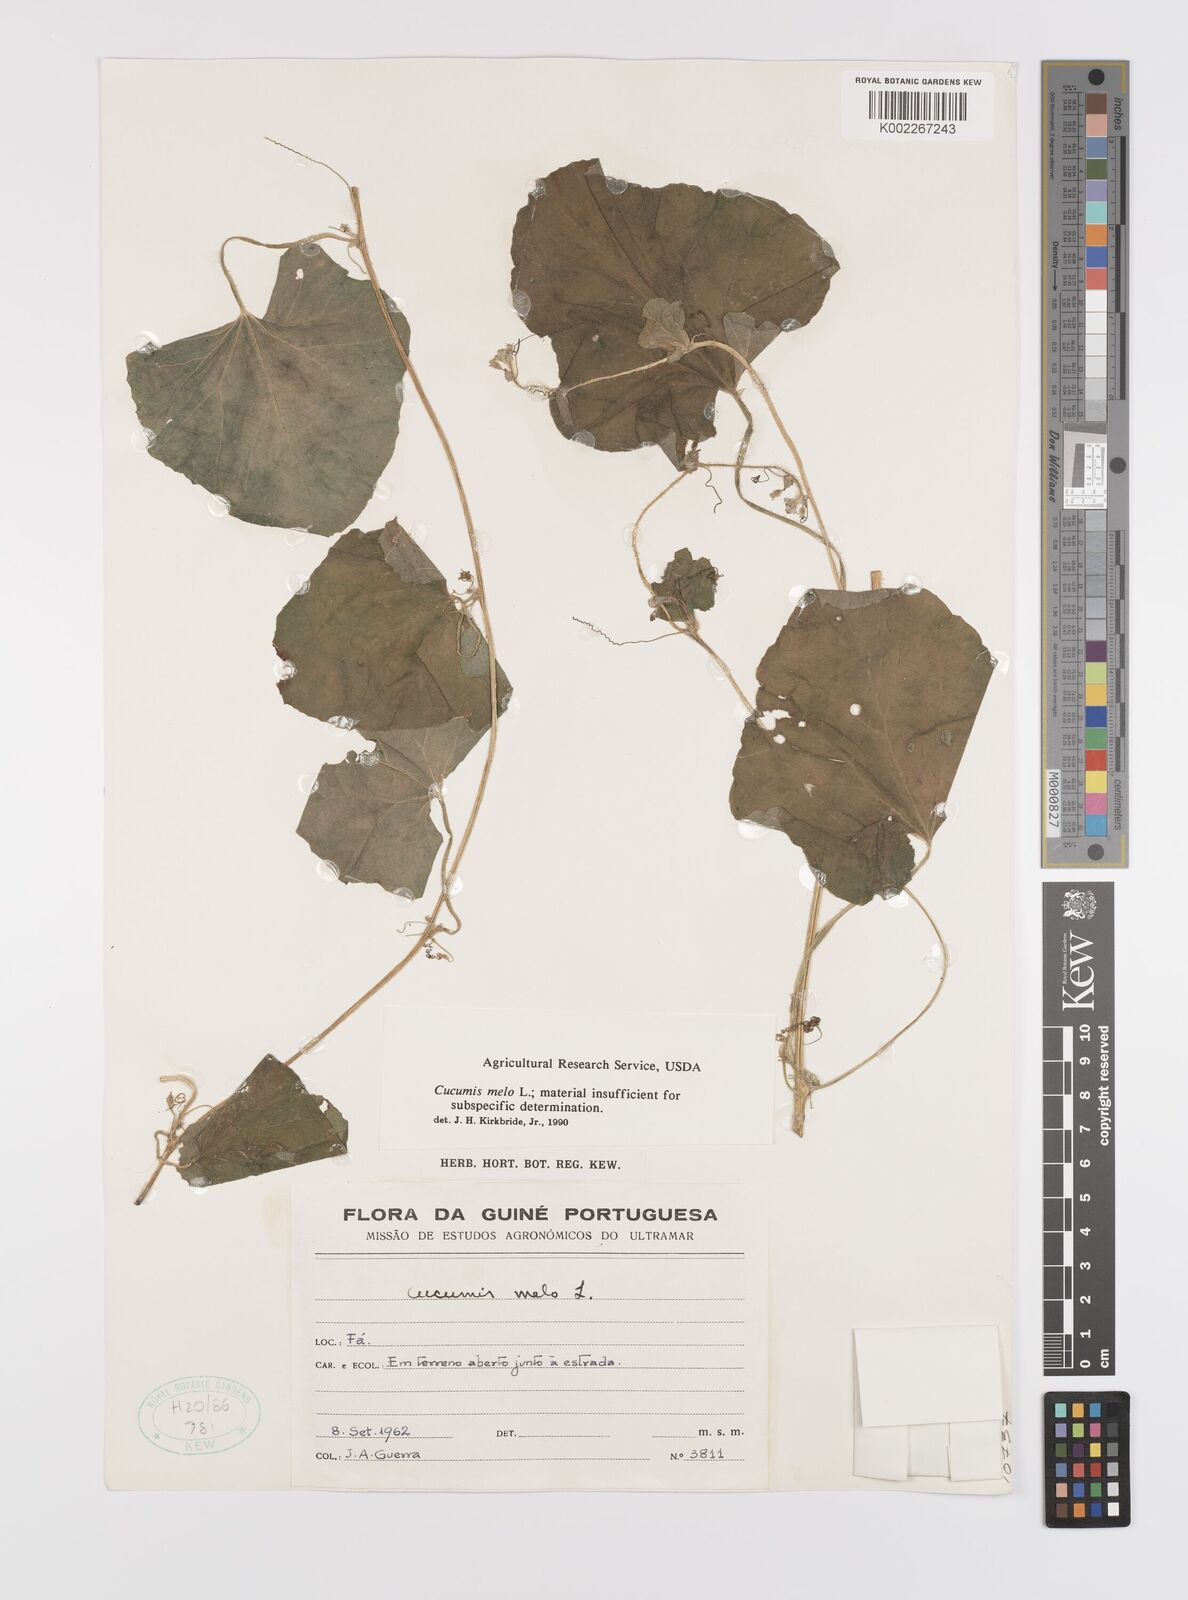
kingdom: Plantae
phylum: Tracheophyta
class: Magnoliopsida
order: Cucurbitales
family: Cucurbitaceae
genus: Cucumis
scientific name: Cucumis melo
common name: Melon
